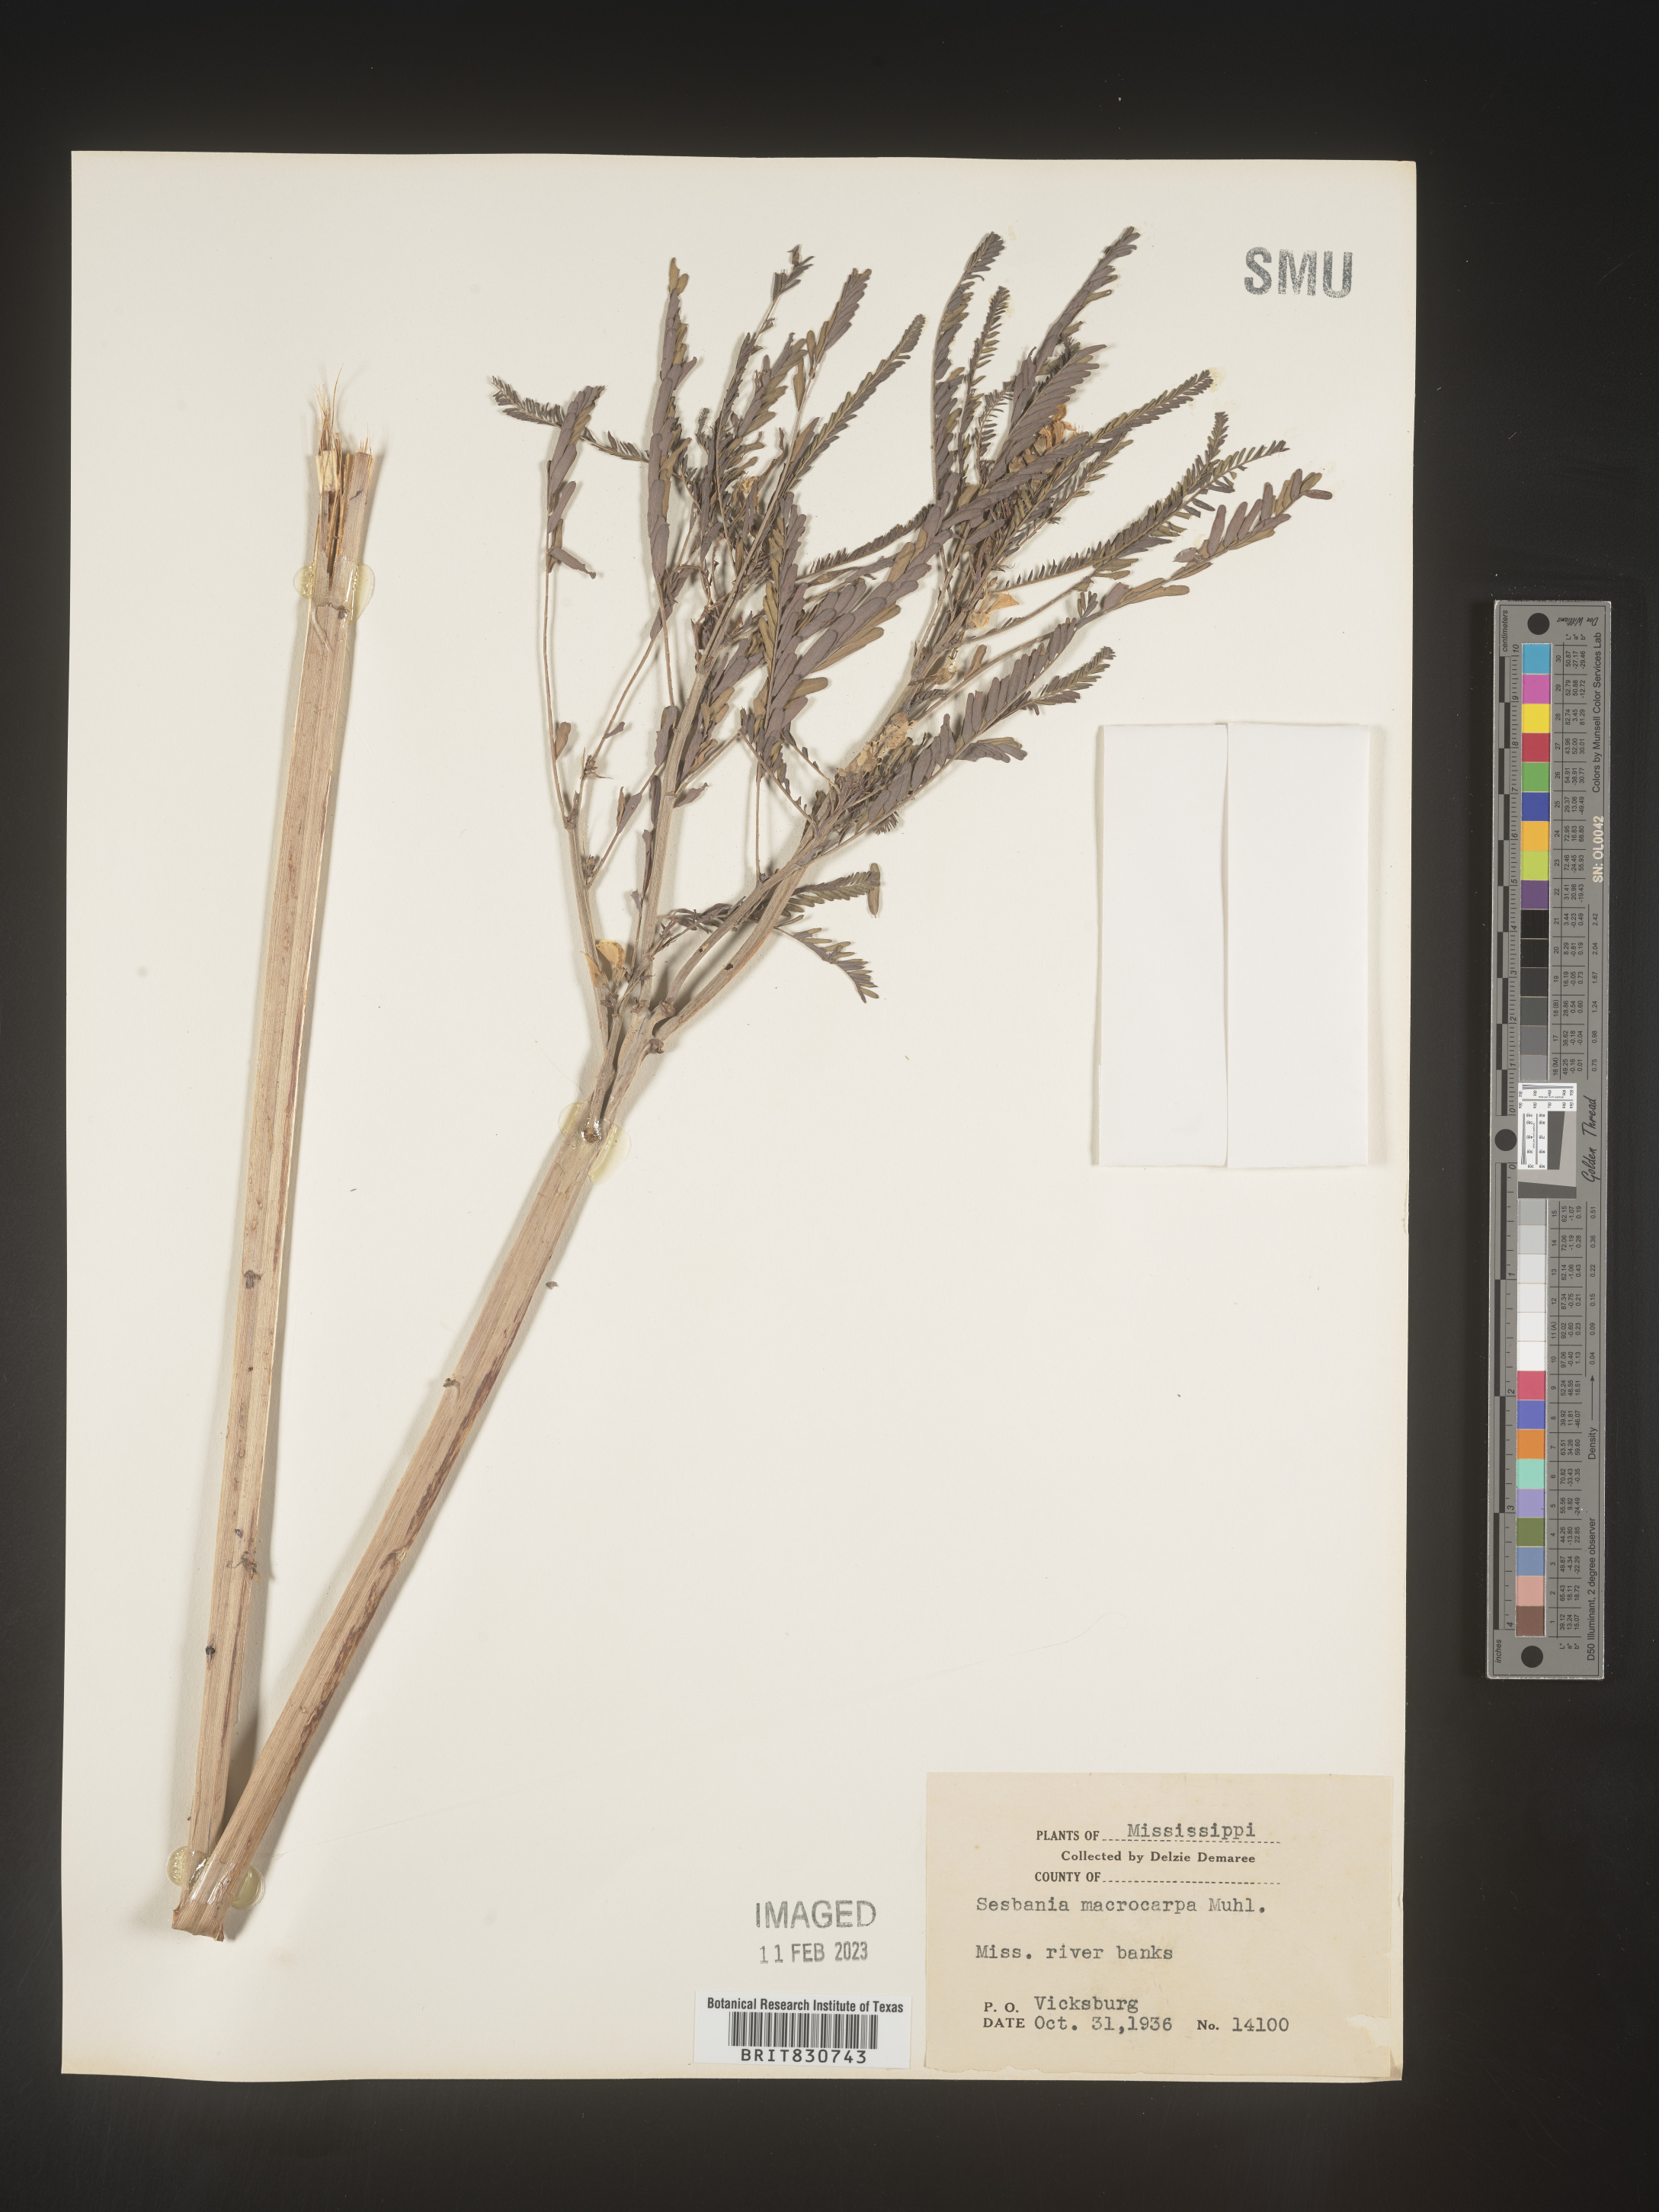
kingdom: Plantae
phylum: Tracheophyta
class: Magnoliopsida
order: Fabales
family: Fabaceae
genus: Sesbania
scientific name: Sesbania vesicaria
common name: Bagpod
